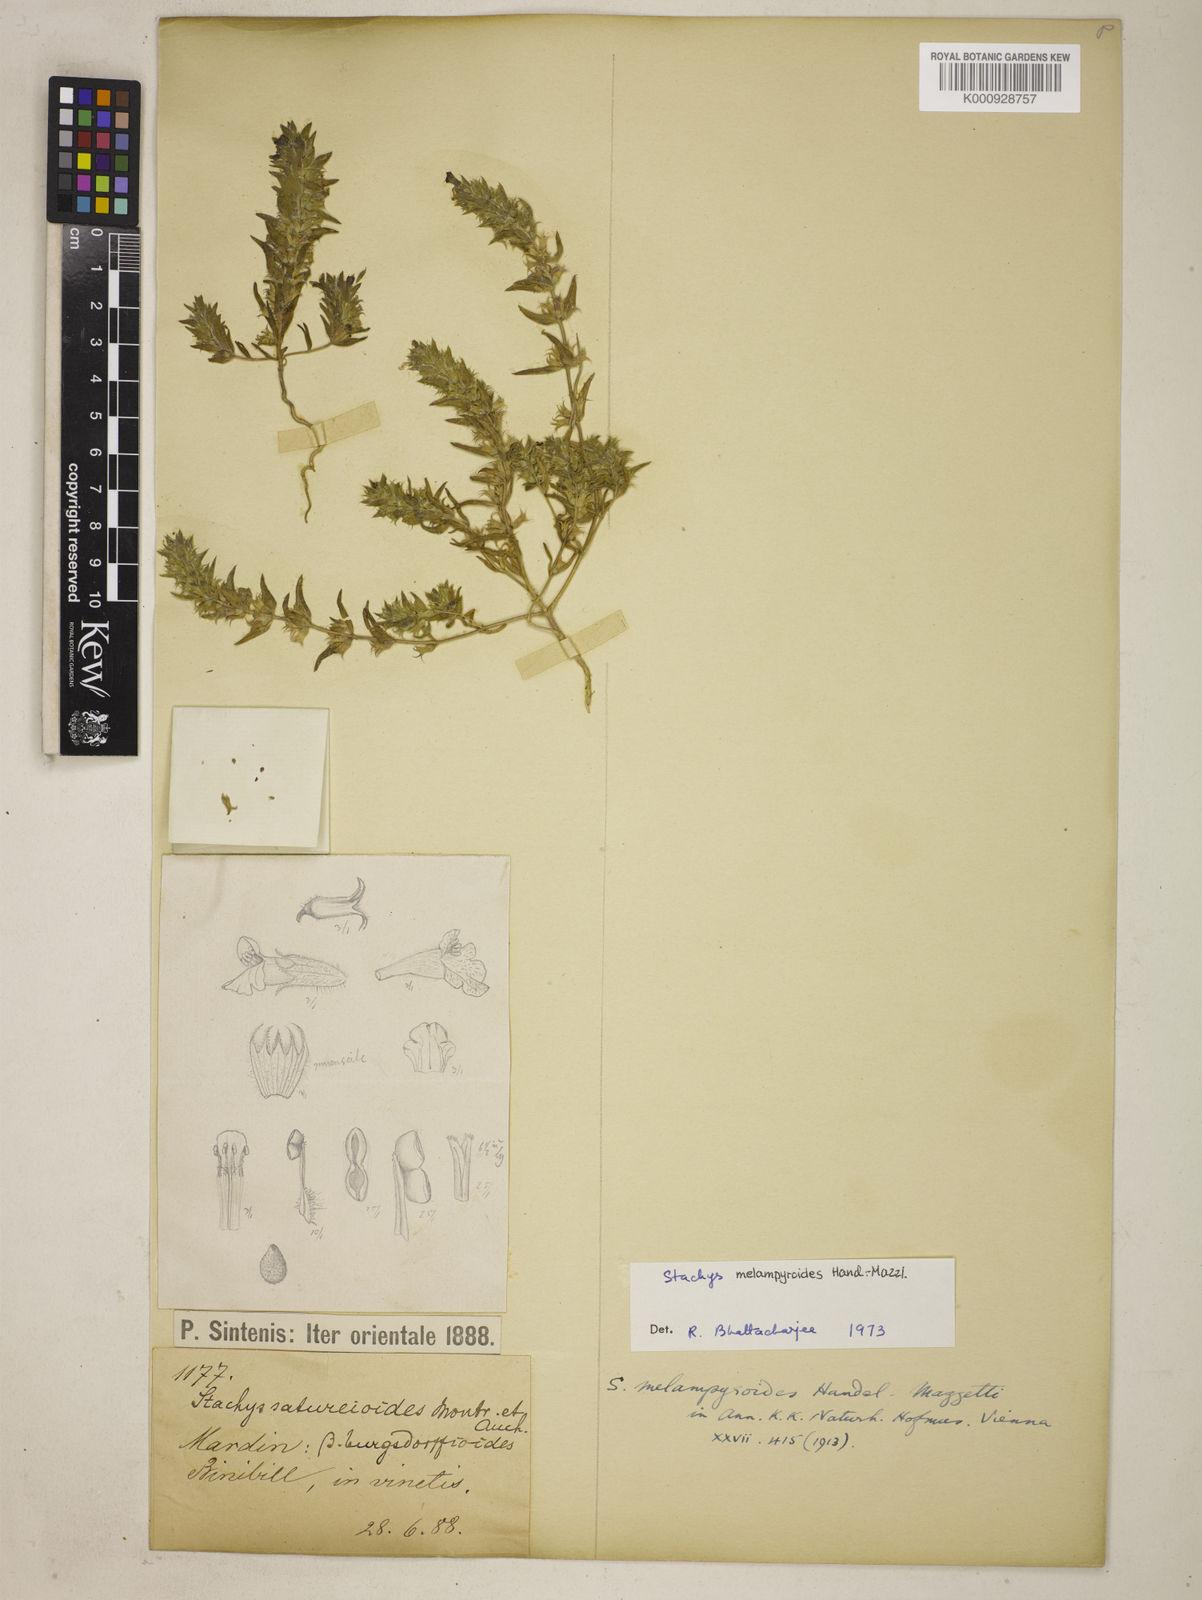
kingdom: Plantae
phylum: Tracheophyta
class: Magnoliopsida
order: Lamiales
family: Lamiaceae
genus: Stachys
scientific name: Stachys ramosissima
